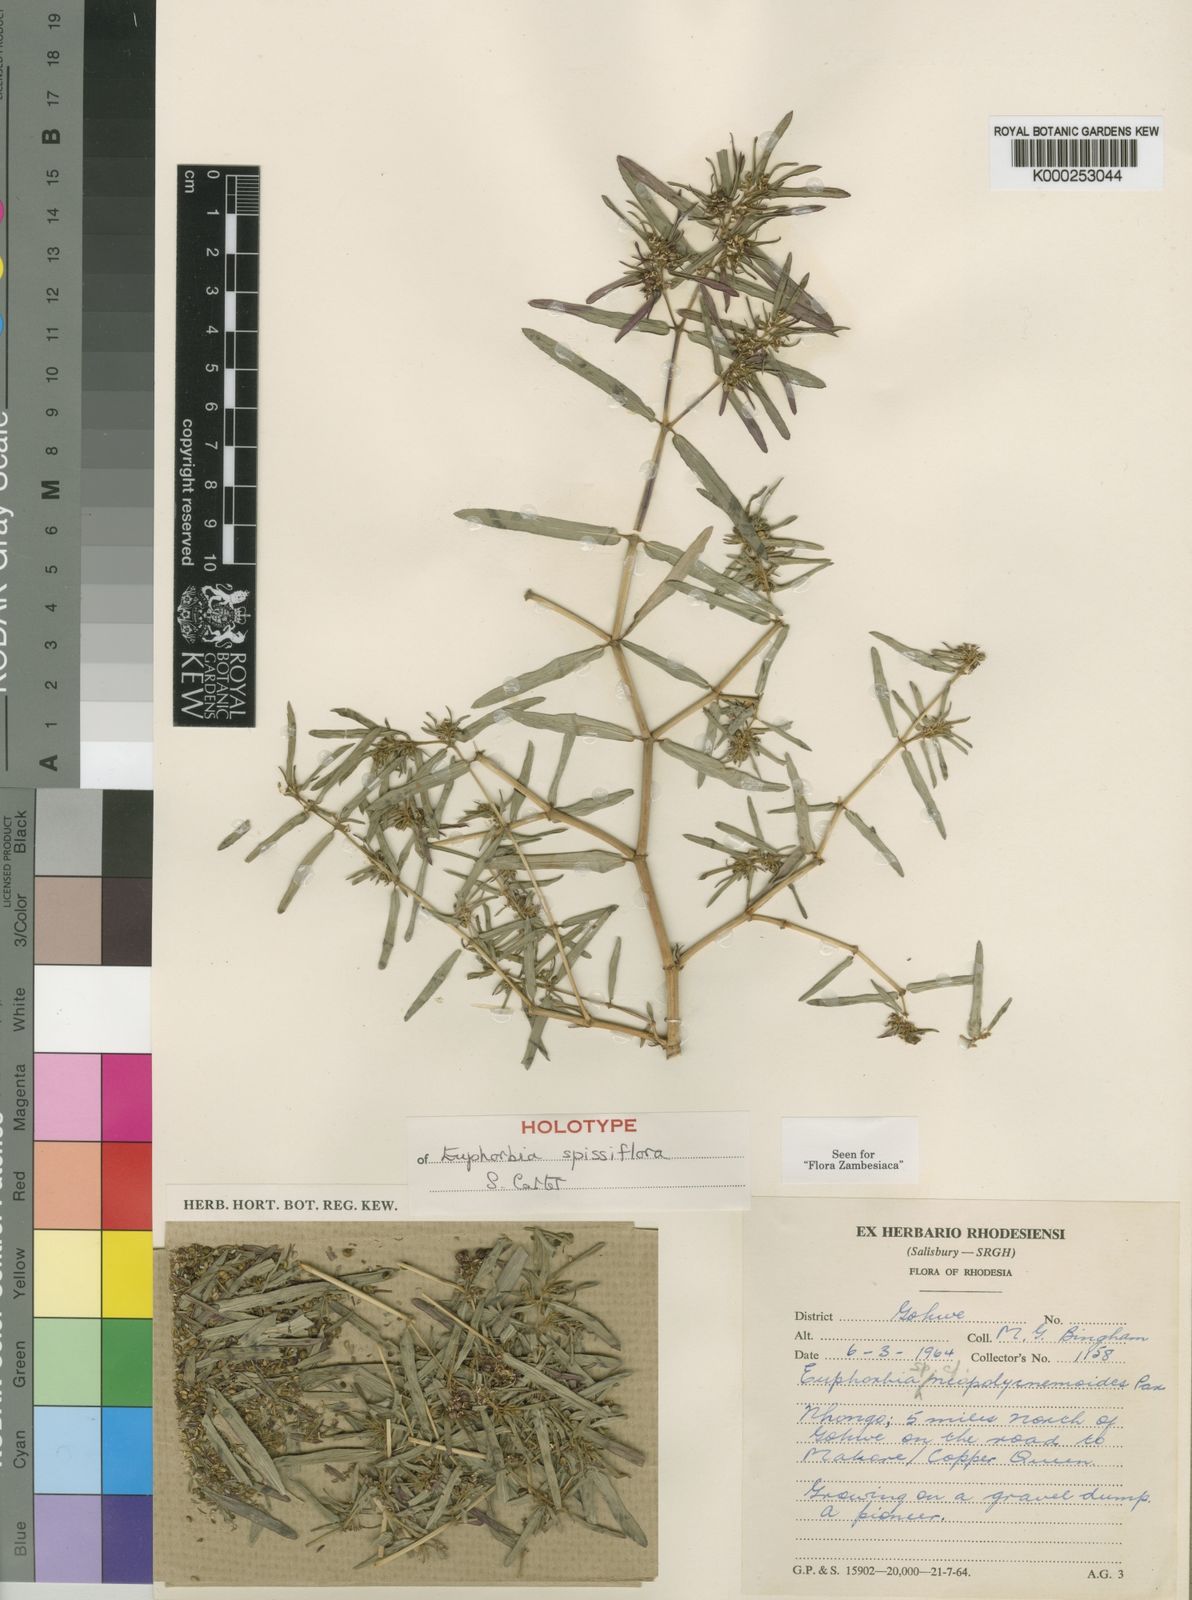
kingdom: Plantae
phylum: Tracheophyta
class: Magnoliopsida
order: Malpighiales
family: Euphorbiaceae
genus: Euphorbia
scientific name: Euphorbia spissiflora
